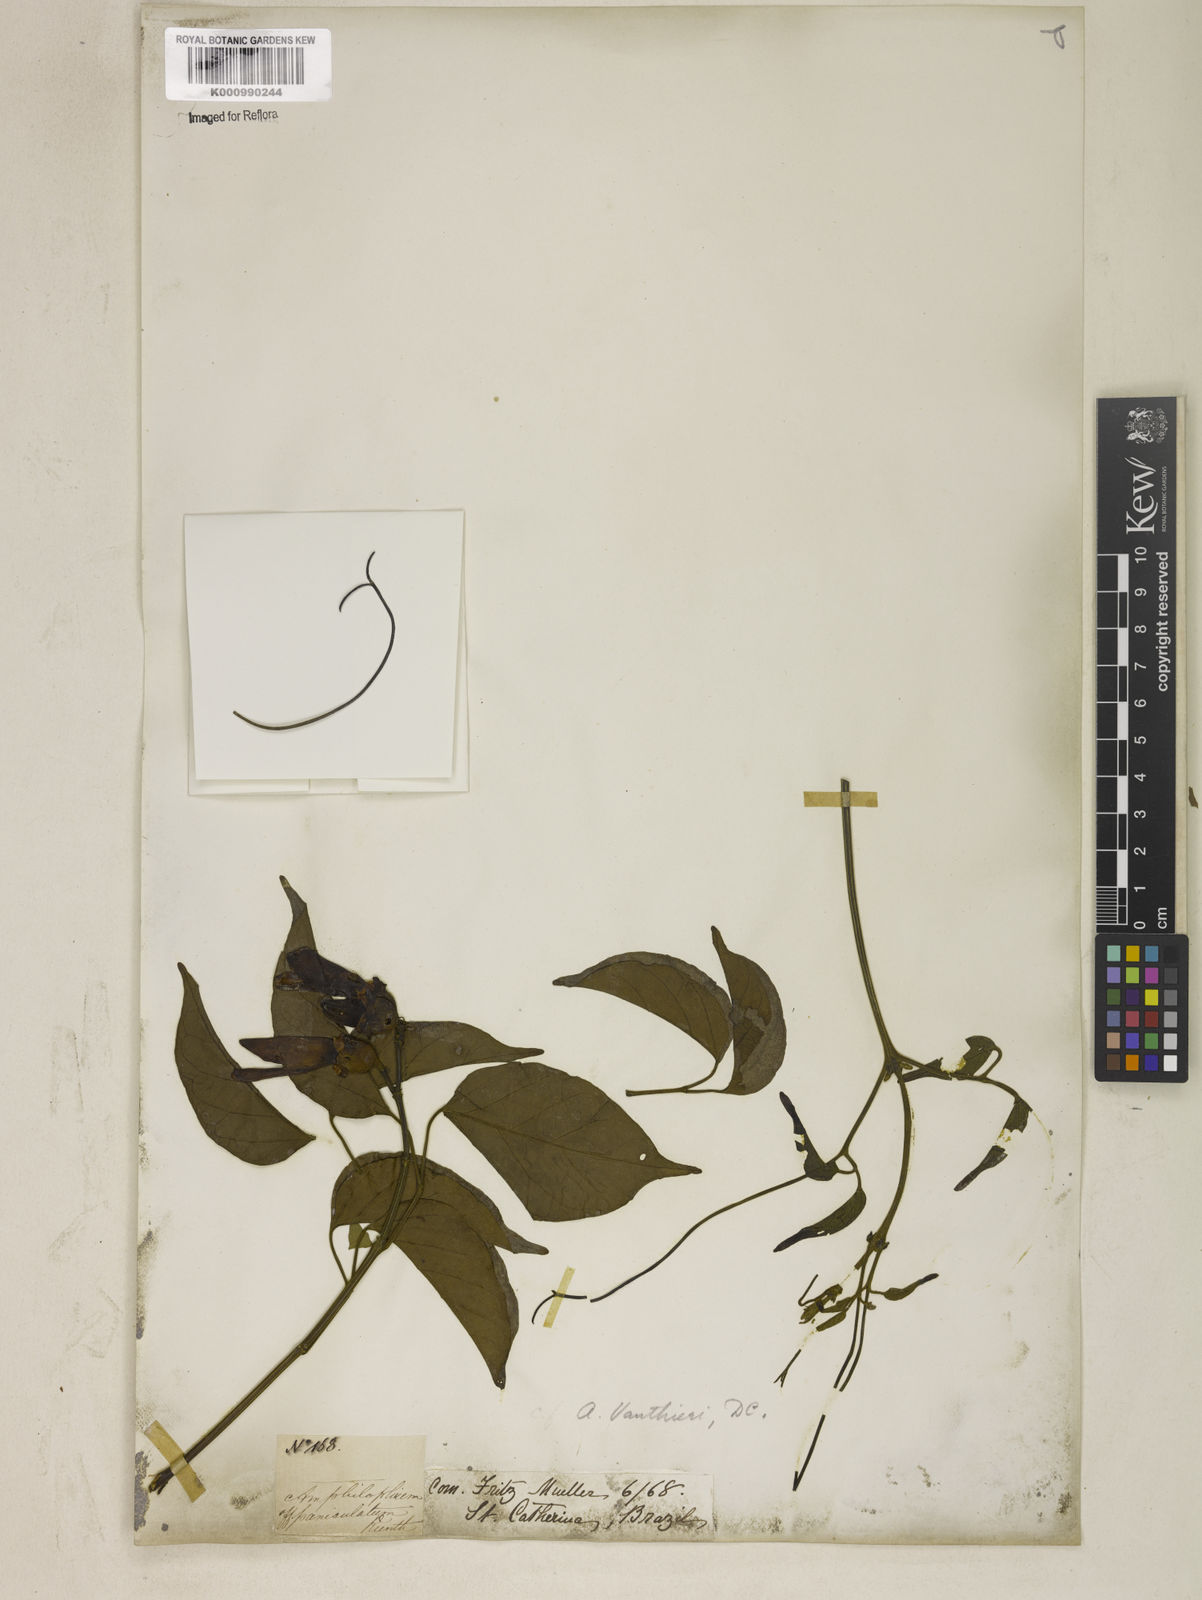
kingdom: Plantae
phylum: Tracheophyta
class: Magnoliopsida
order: Lamiales
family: Bignoniaceae
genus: Amphilophium
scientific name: Amphilophium paniculatum
